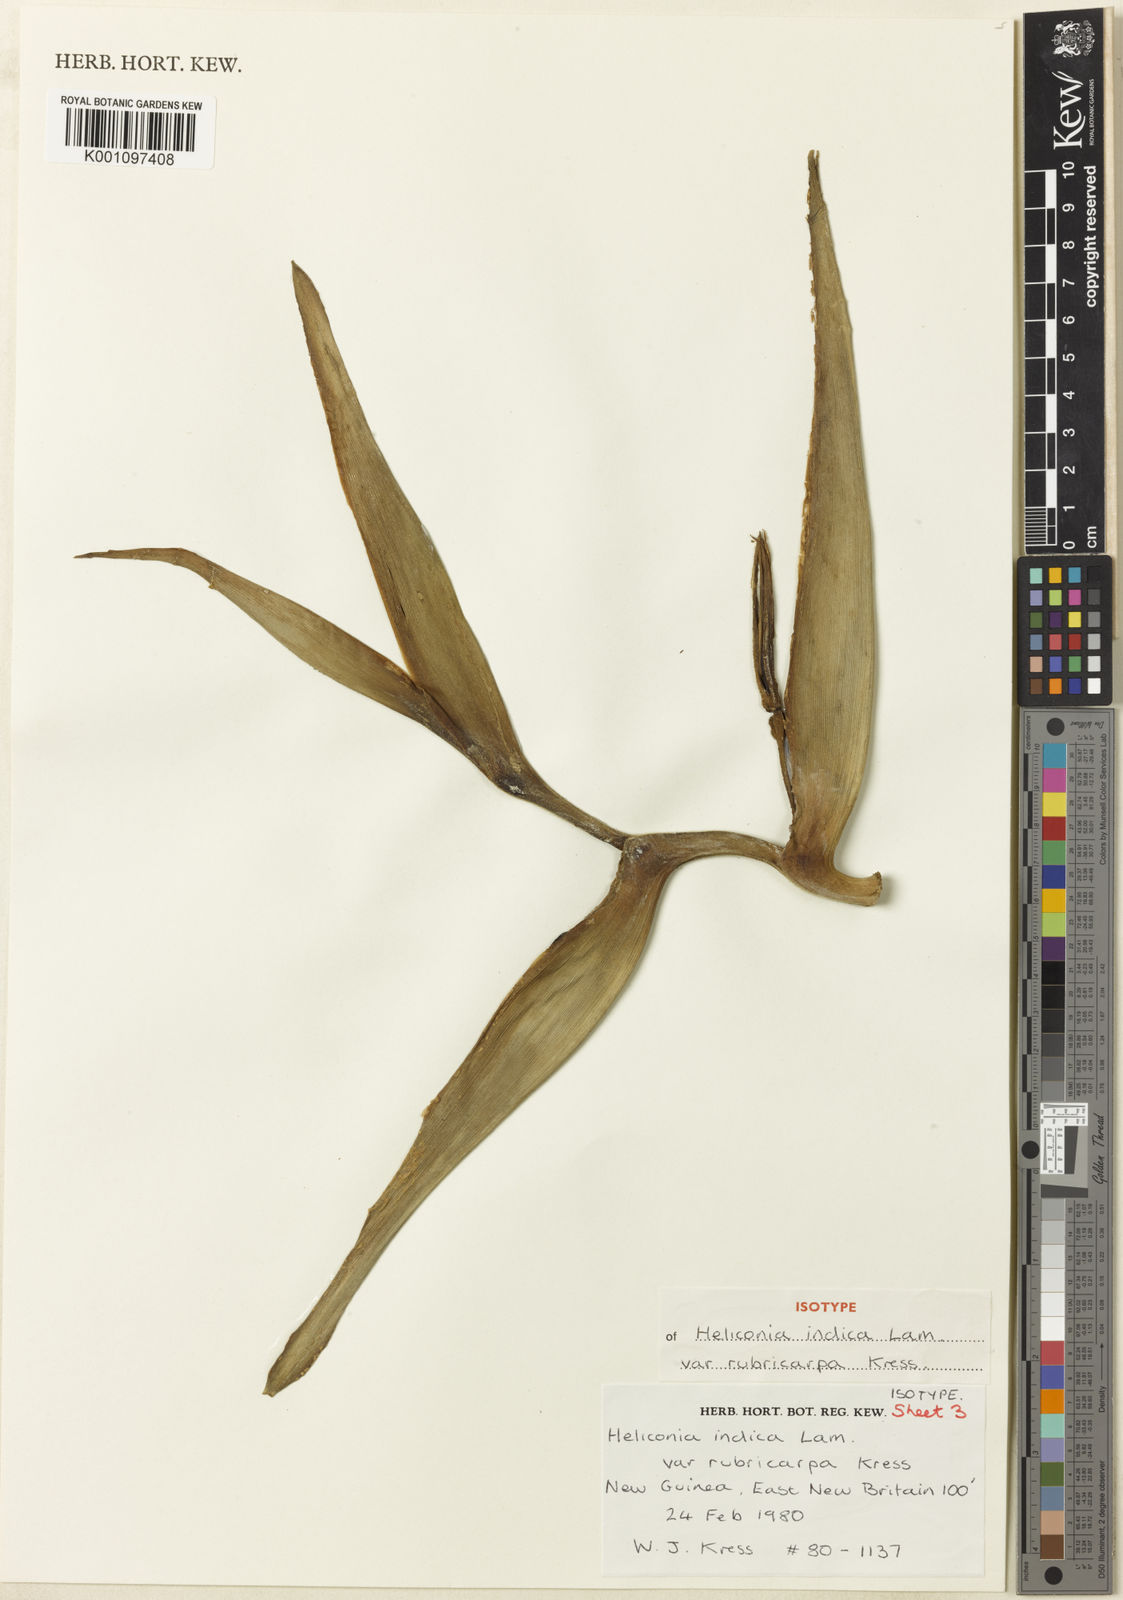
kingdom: Plantae
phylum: Tracheophyta
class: Liliopsida
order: Zingiberales
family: Heliconiaceae
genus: Heliconia
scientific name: Heliconia indica
